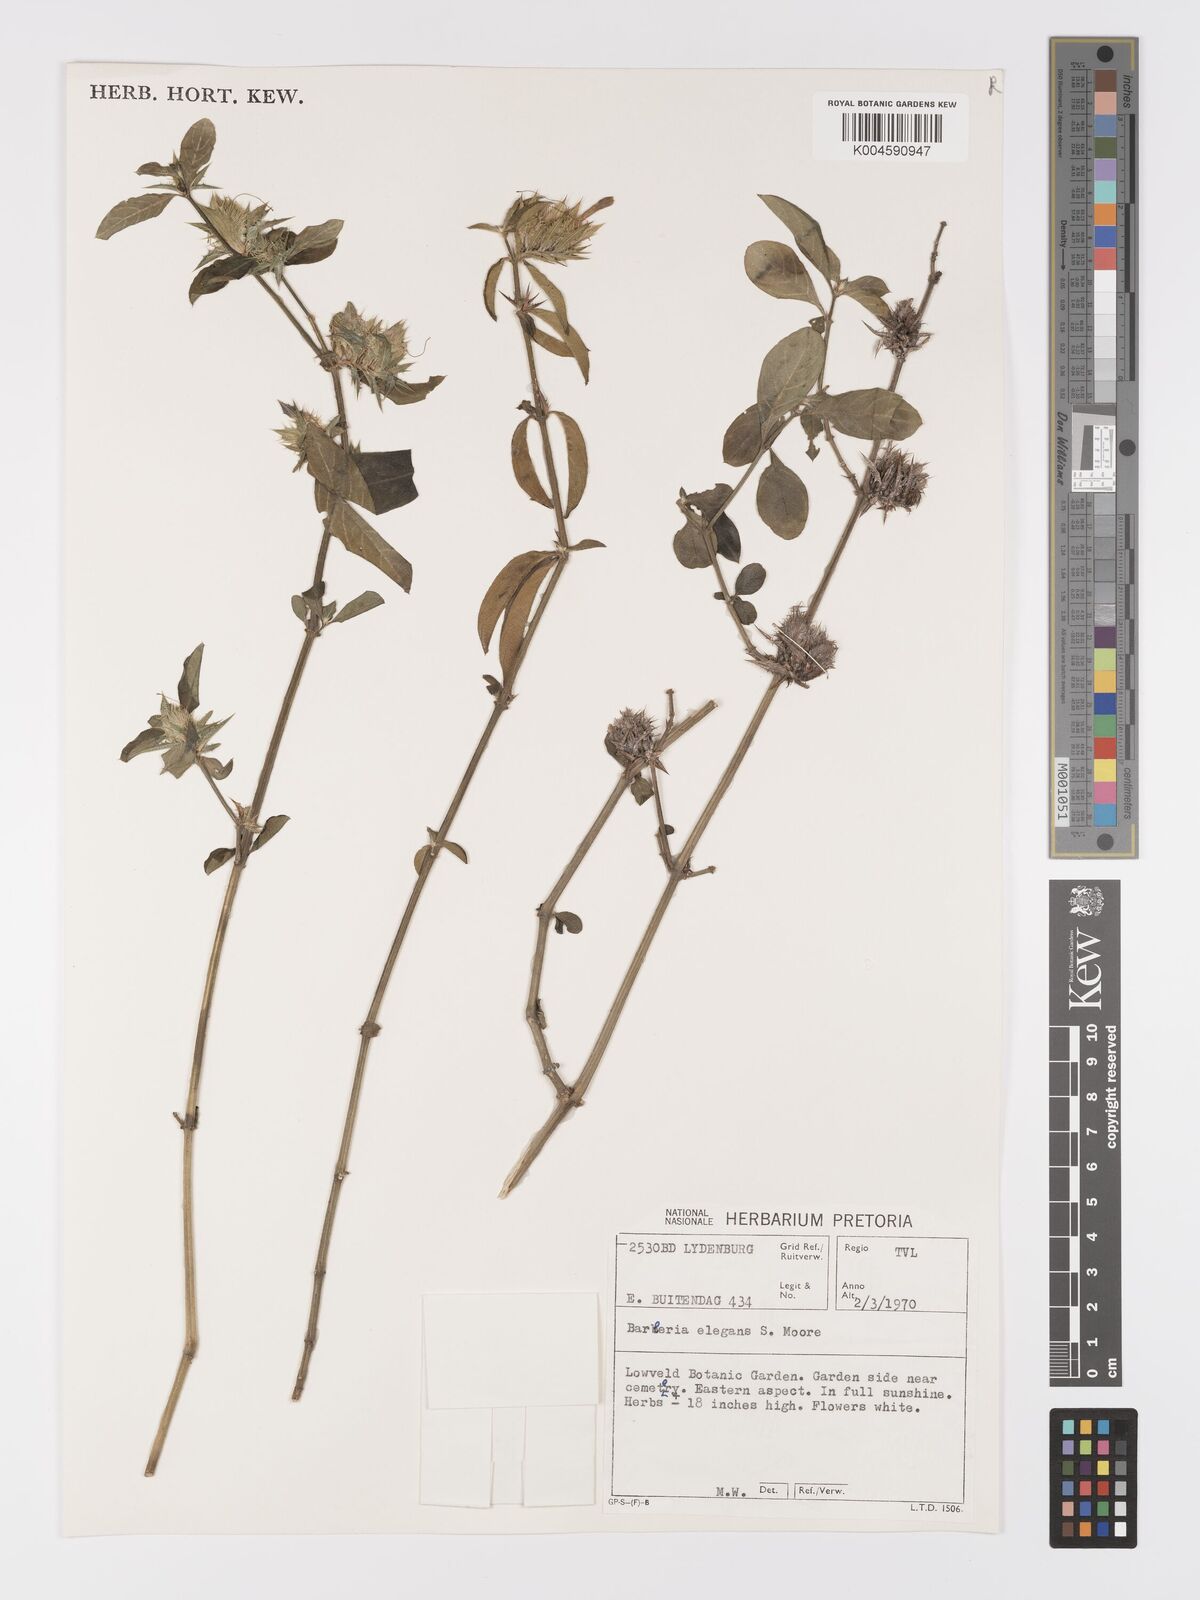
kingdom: Plantae
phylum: Tracheophyta
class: Magnoliopsida
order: Lamiales
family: Acanthaceae
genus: Barleria
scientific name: Barleria elegans
